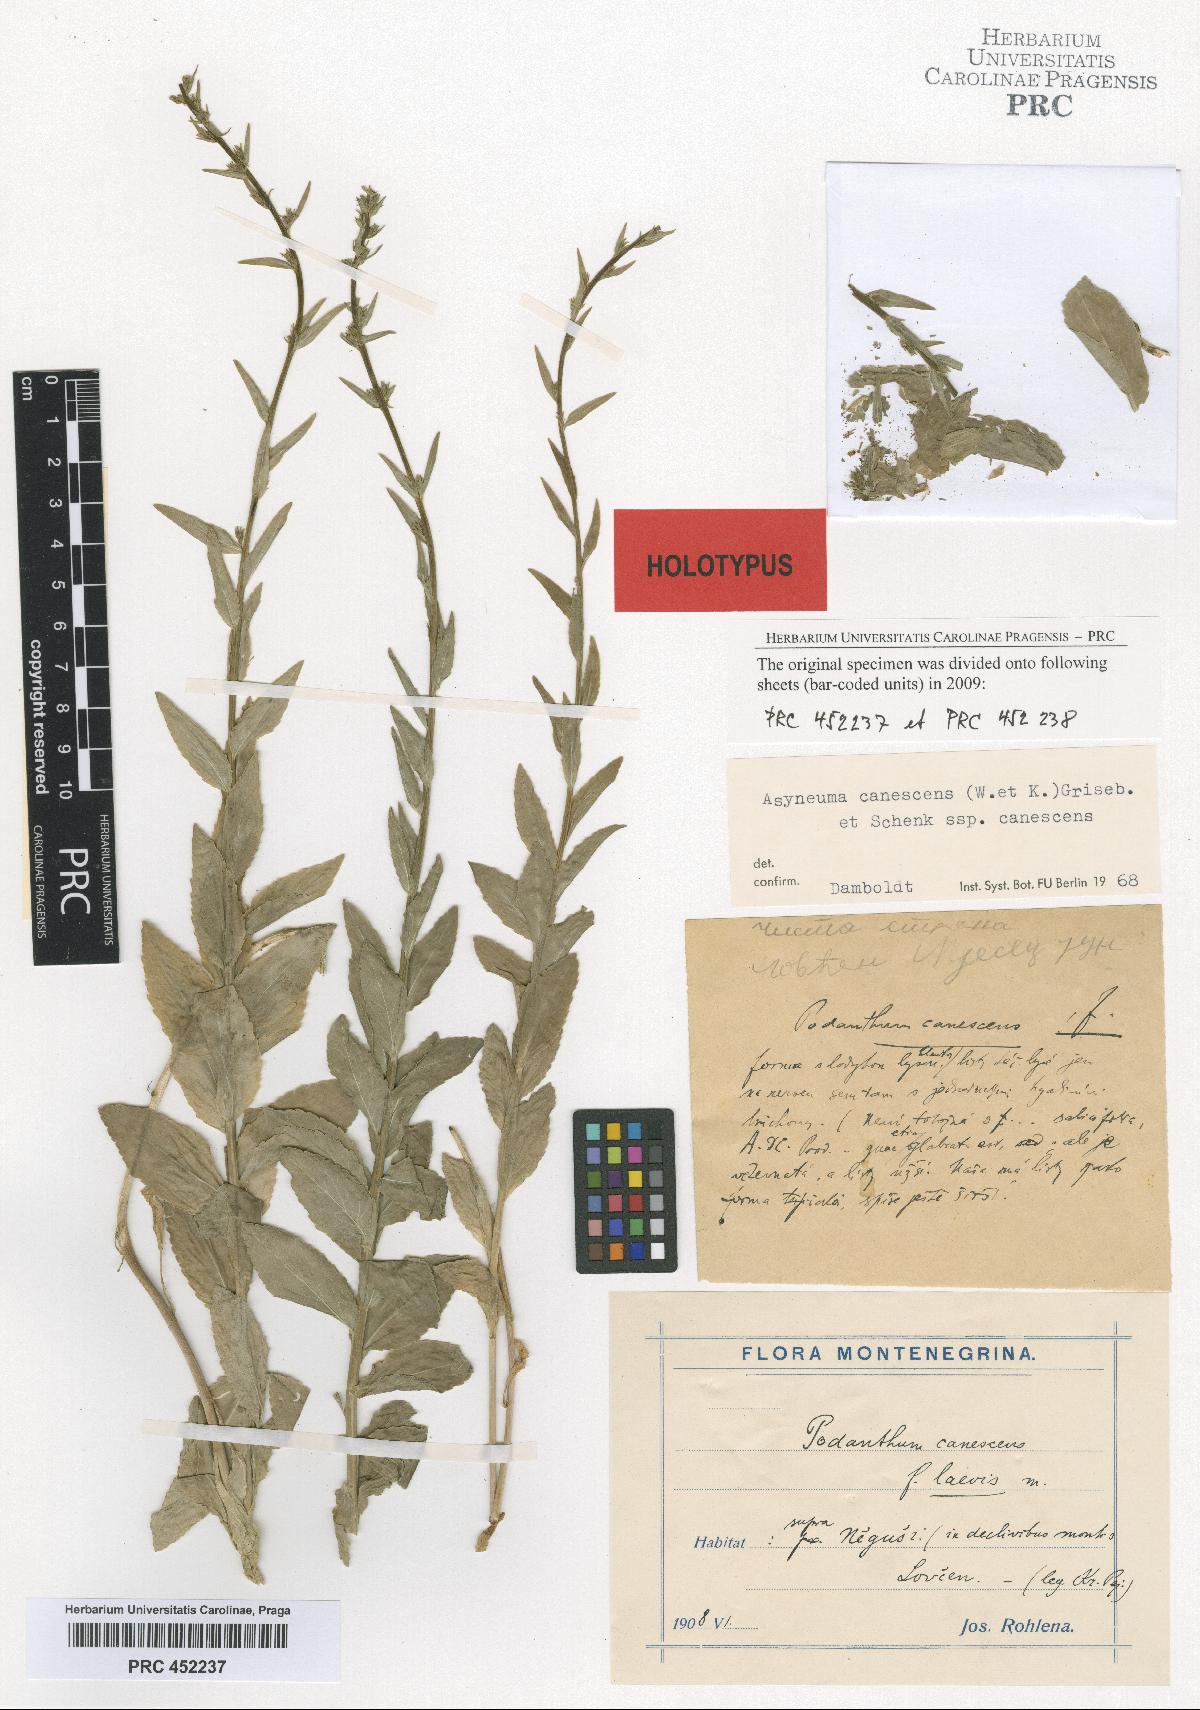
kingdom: Plantae
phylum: Tracheophyta
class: Magnoliopsida
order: Asterales
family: Campanulaceae
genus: Asyneuma
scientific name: Asyneuma canescens
